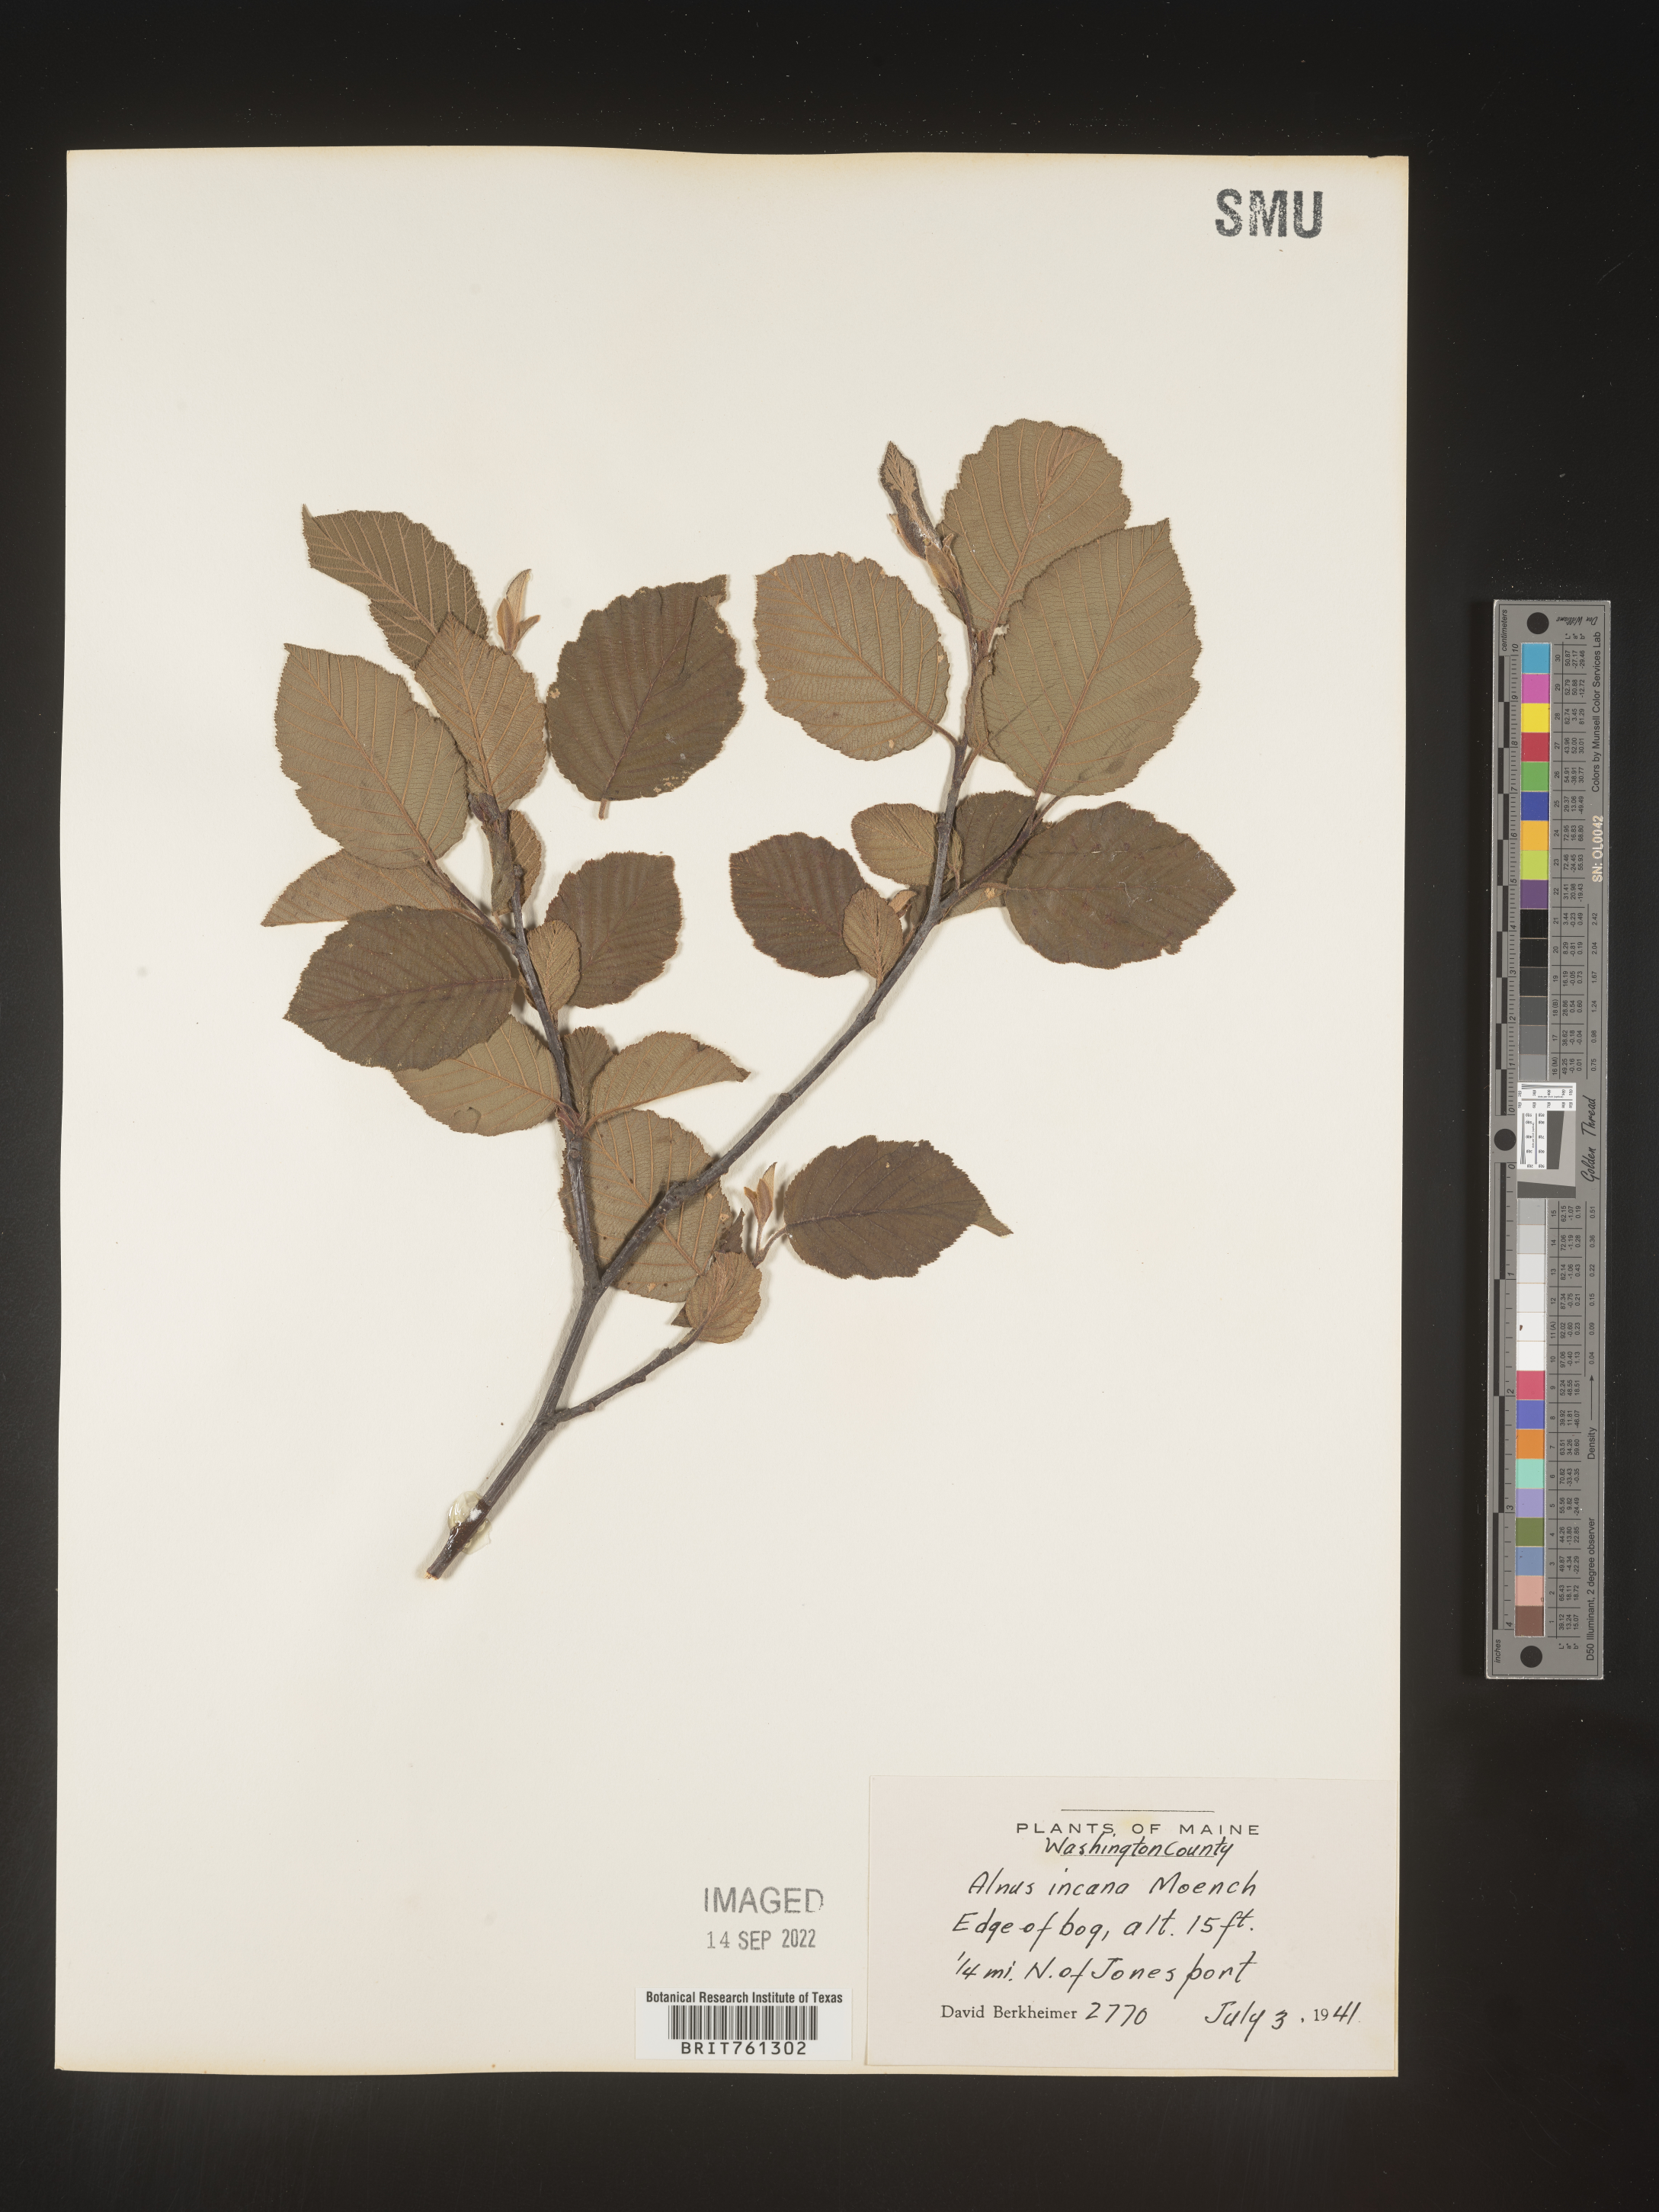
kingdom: Plantae
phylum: Tracheophyta
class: Magnoliopsida
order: Fagales
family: Betulaceae
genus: Alnus
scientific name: Alnus incana
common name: Grey alder
